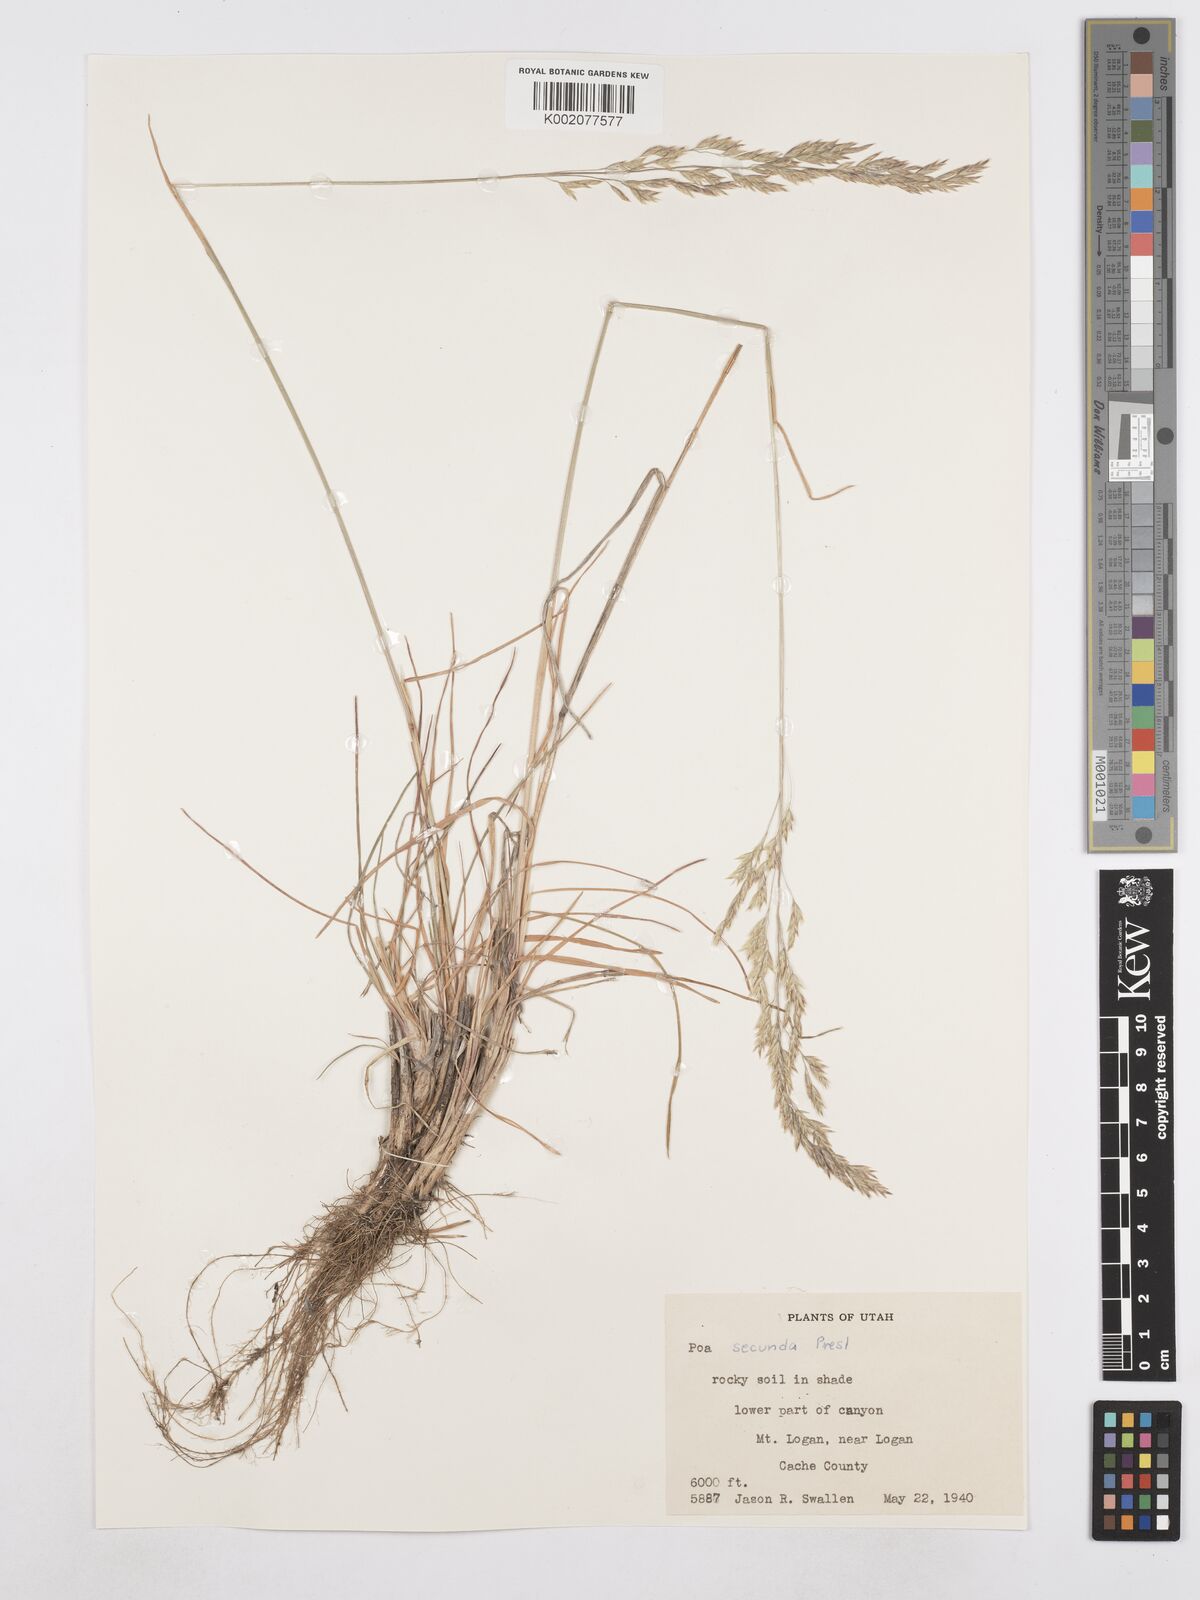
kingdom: Plantae
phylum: Tracheophyta
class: Liliopsida
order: Poales
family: Poaceae
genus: Poa
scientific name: Poa secunda
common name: Sandberg bluegrass
